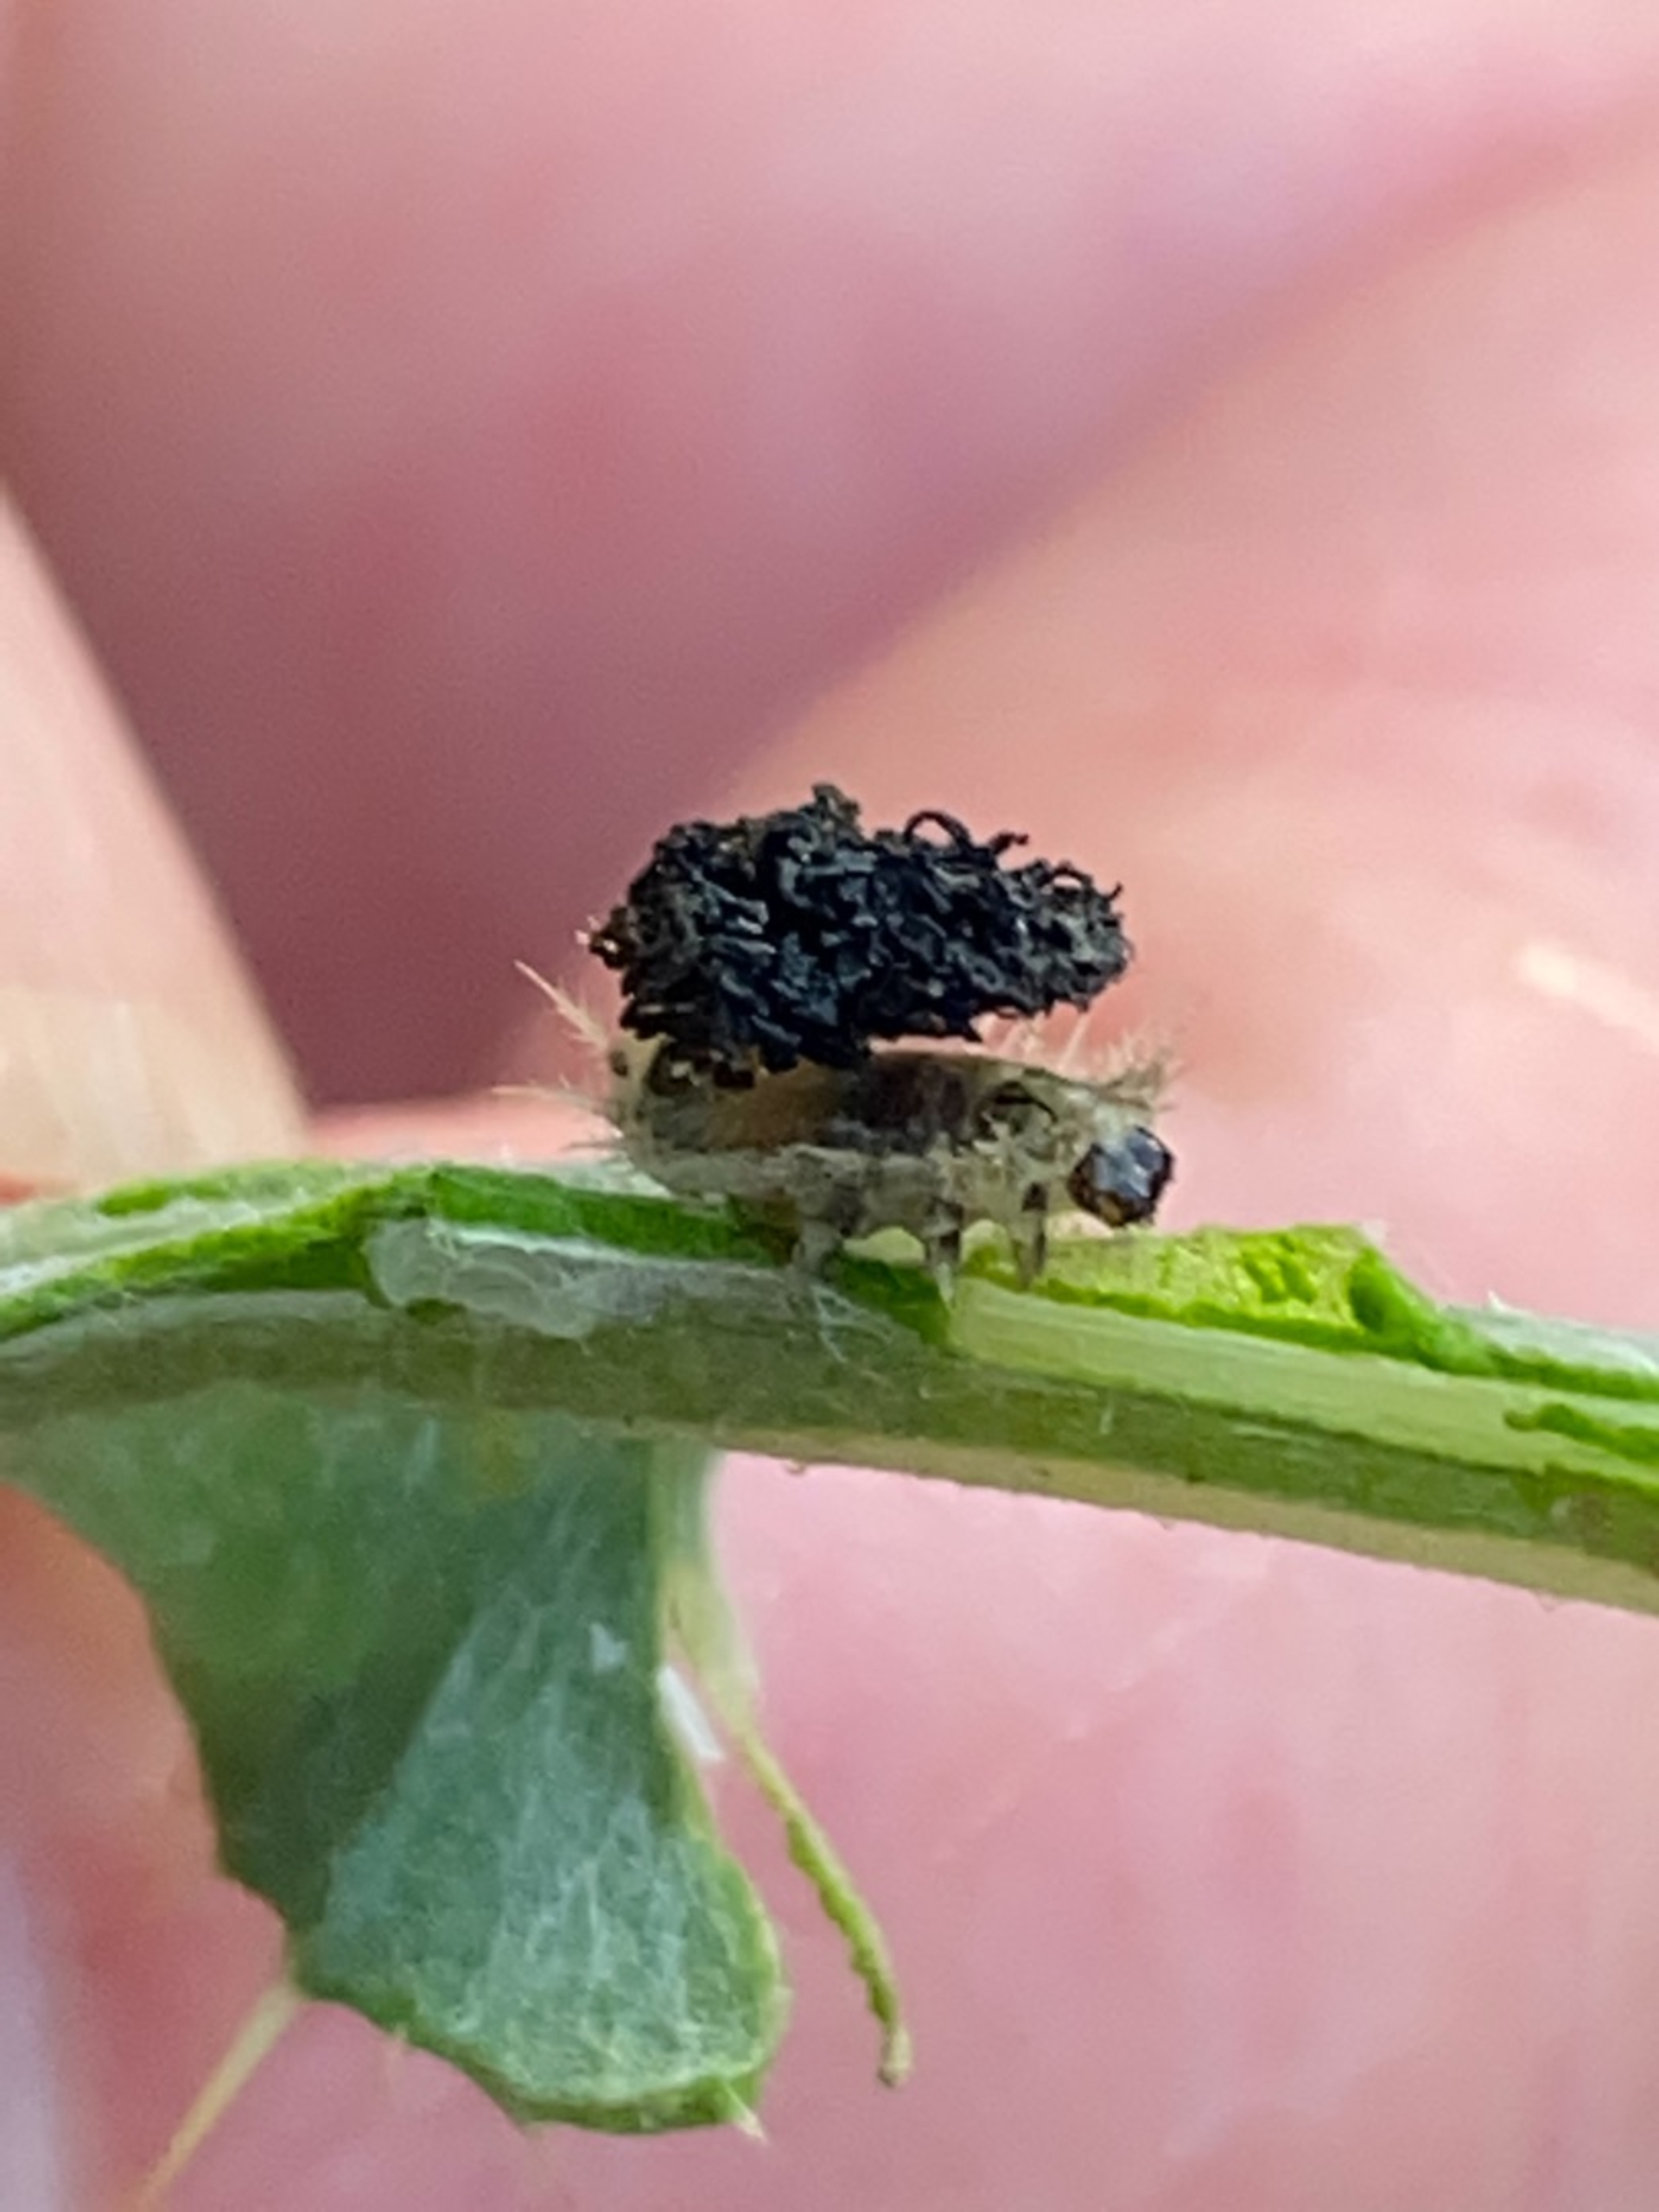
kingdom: Animalia
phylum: Arthropoda
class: Insecta
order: Coleoptera
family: Chrysomelidae
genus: Cassida
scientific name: Cassida rubiginosa
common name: Tidselskjoldbille
